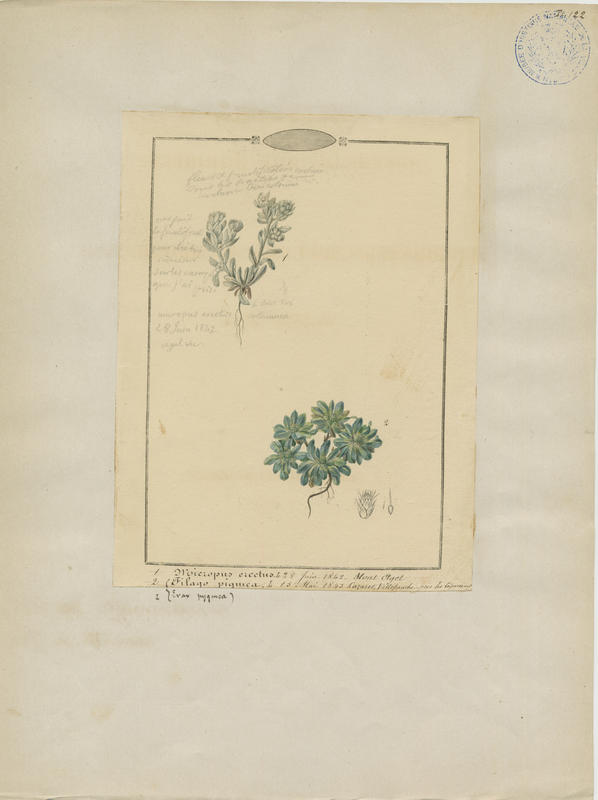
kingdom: Plantae
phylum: Tracheophyta
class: Magnoliopsida
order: Asterales
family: Asteraceae
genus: Bombycilaena
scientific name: Bombycilaena erecta
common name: Micropus
